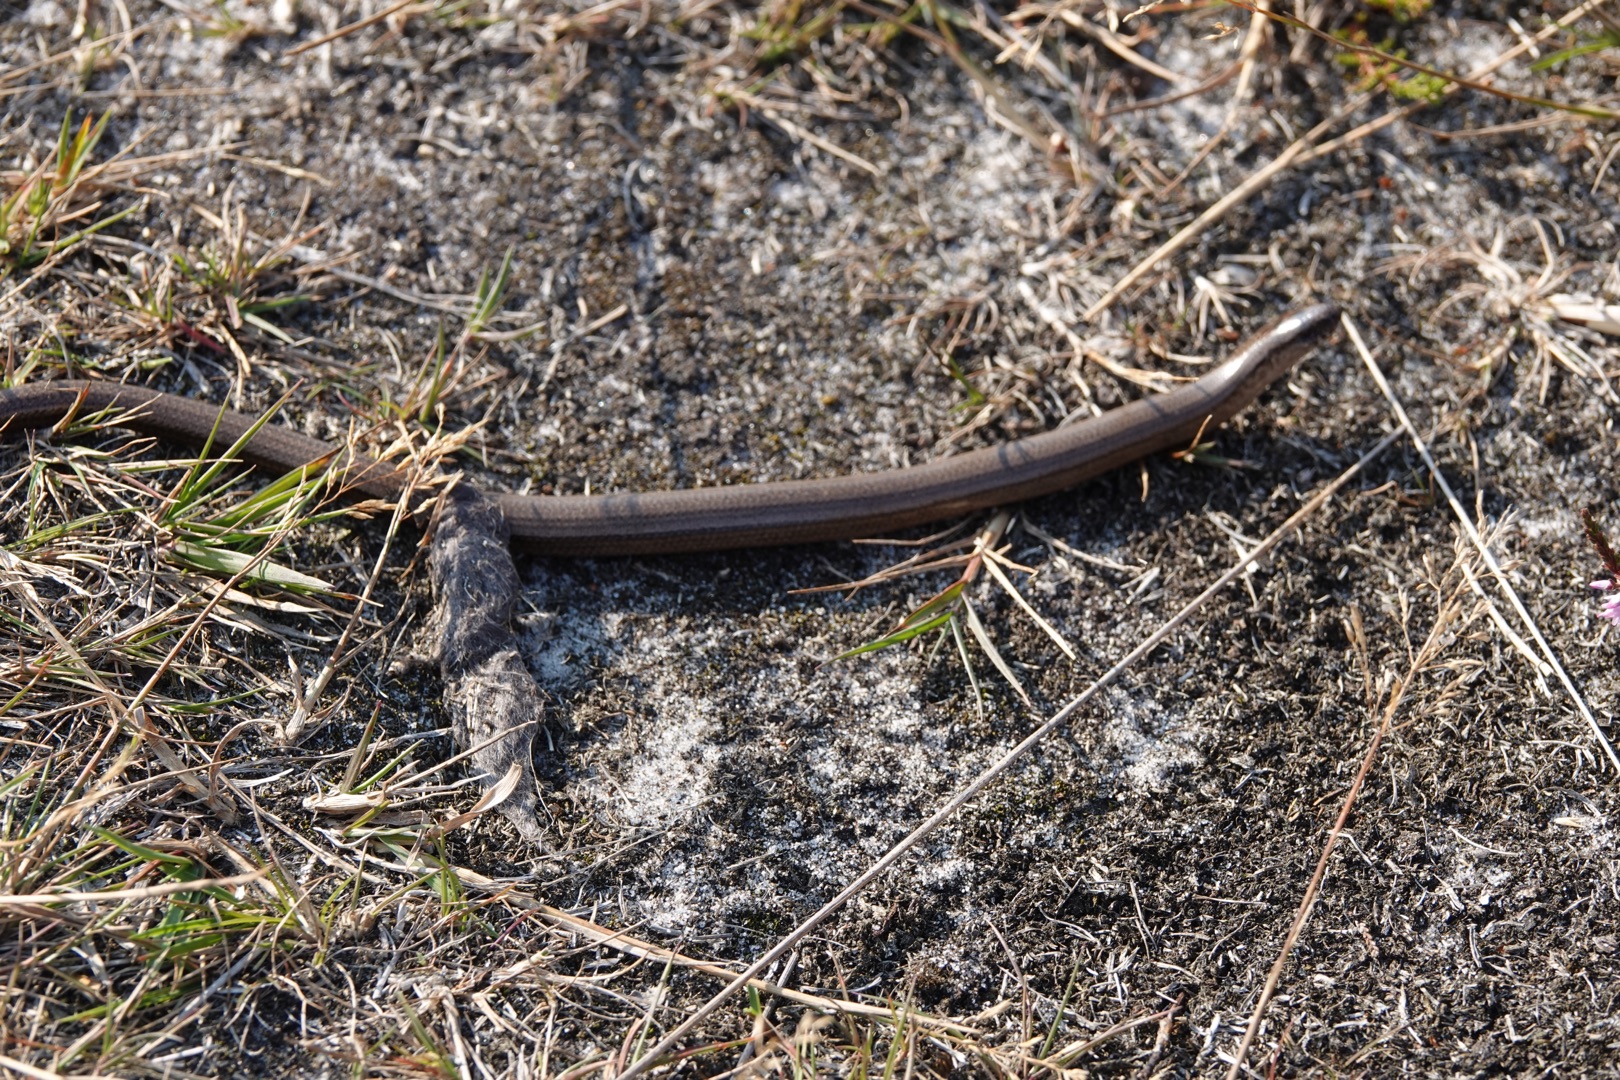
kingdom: Animalia
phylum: Chordata
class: Squamata
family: Anguidae
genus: Anguis
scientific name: Anguis fragilis
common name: Stålorm
